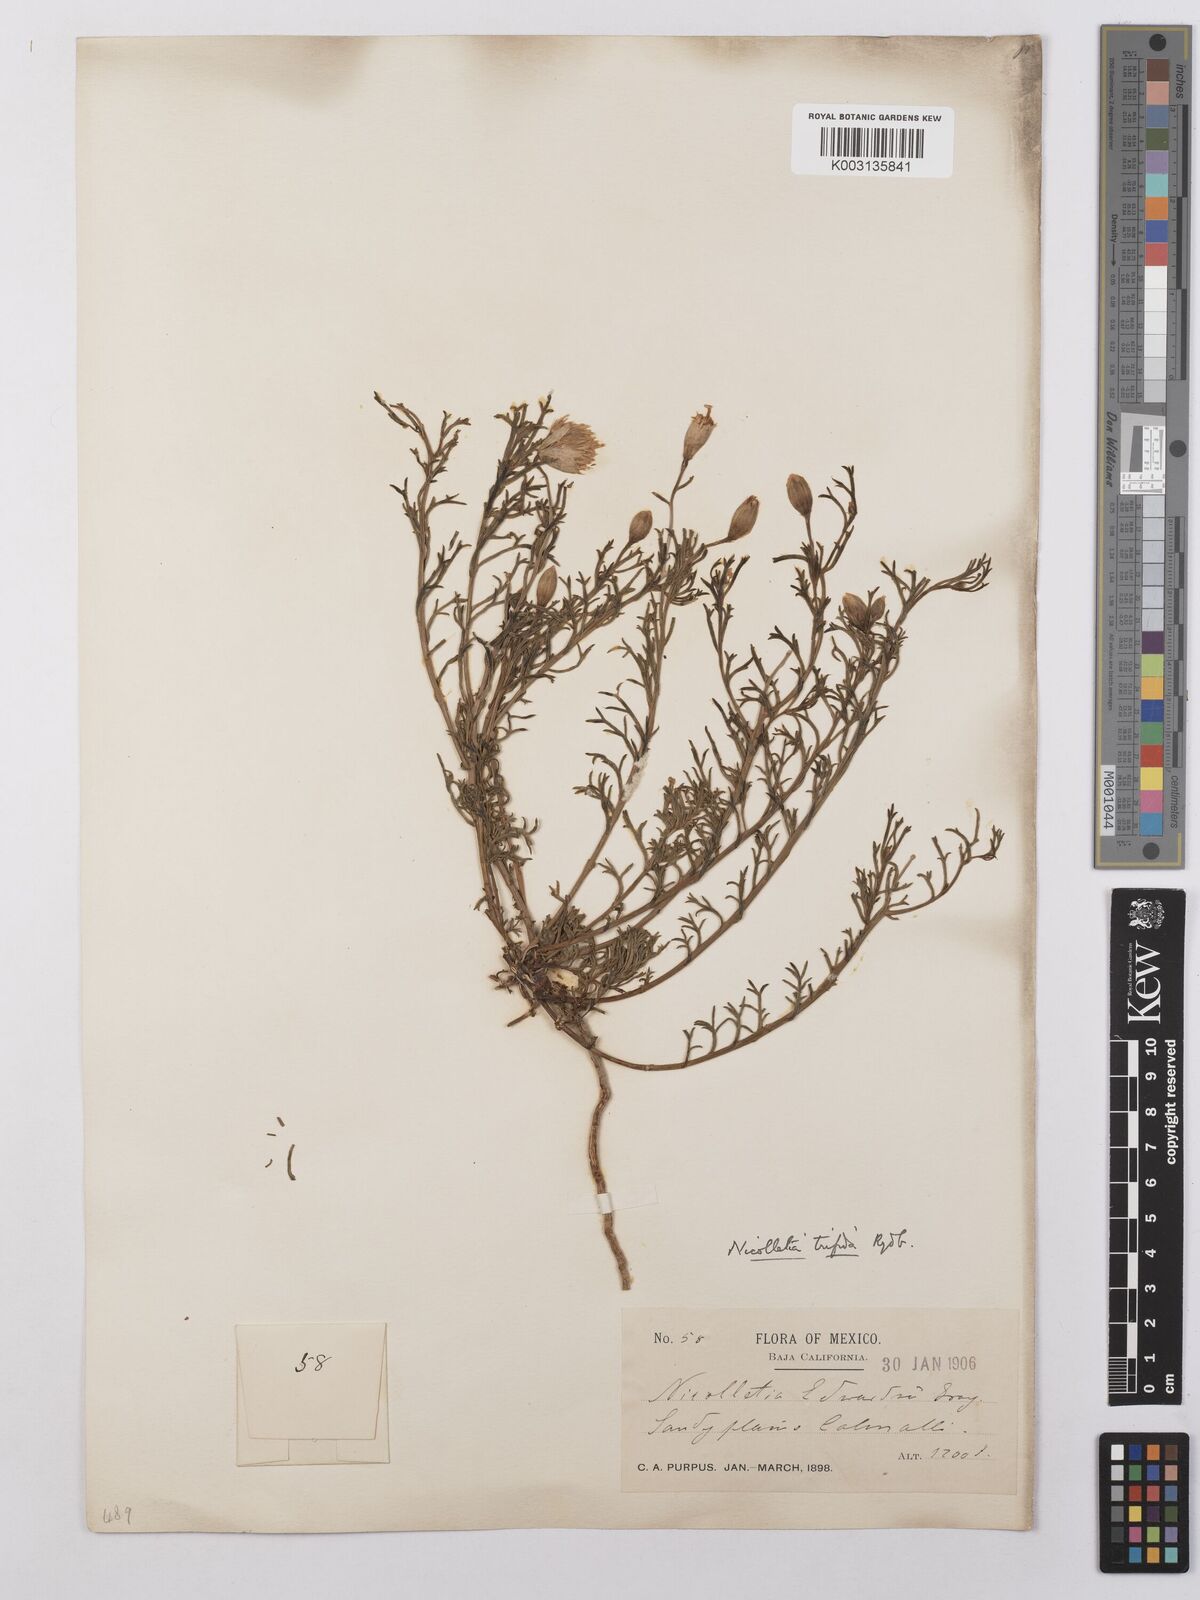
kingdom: Plantae
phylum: Tracheophyta
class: Magnoliopsida
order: Asterales
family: Asteraceae
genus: Nicolletia
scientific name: Nicolletia trifida
